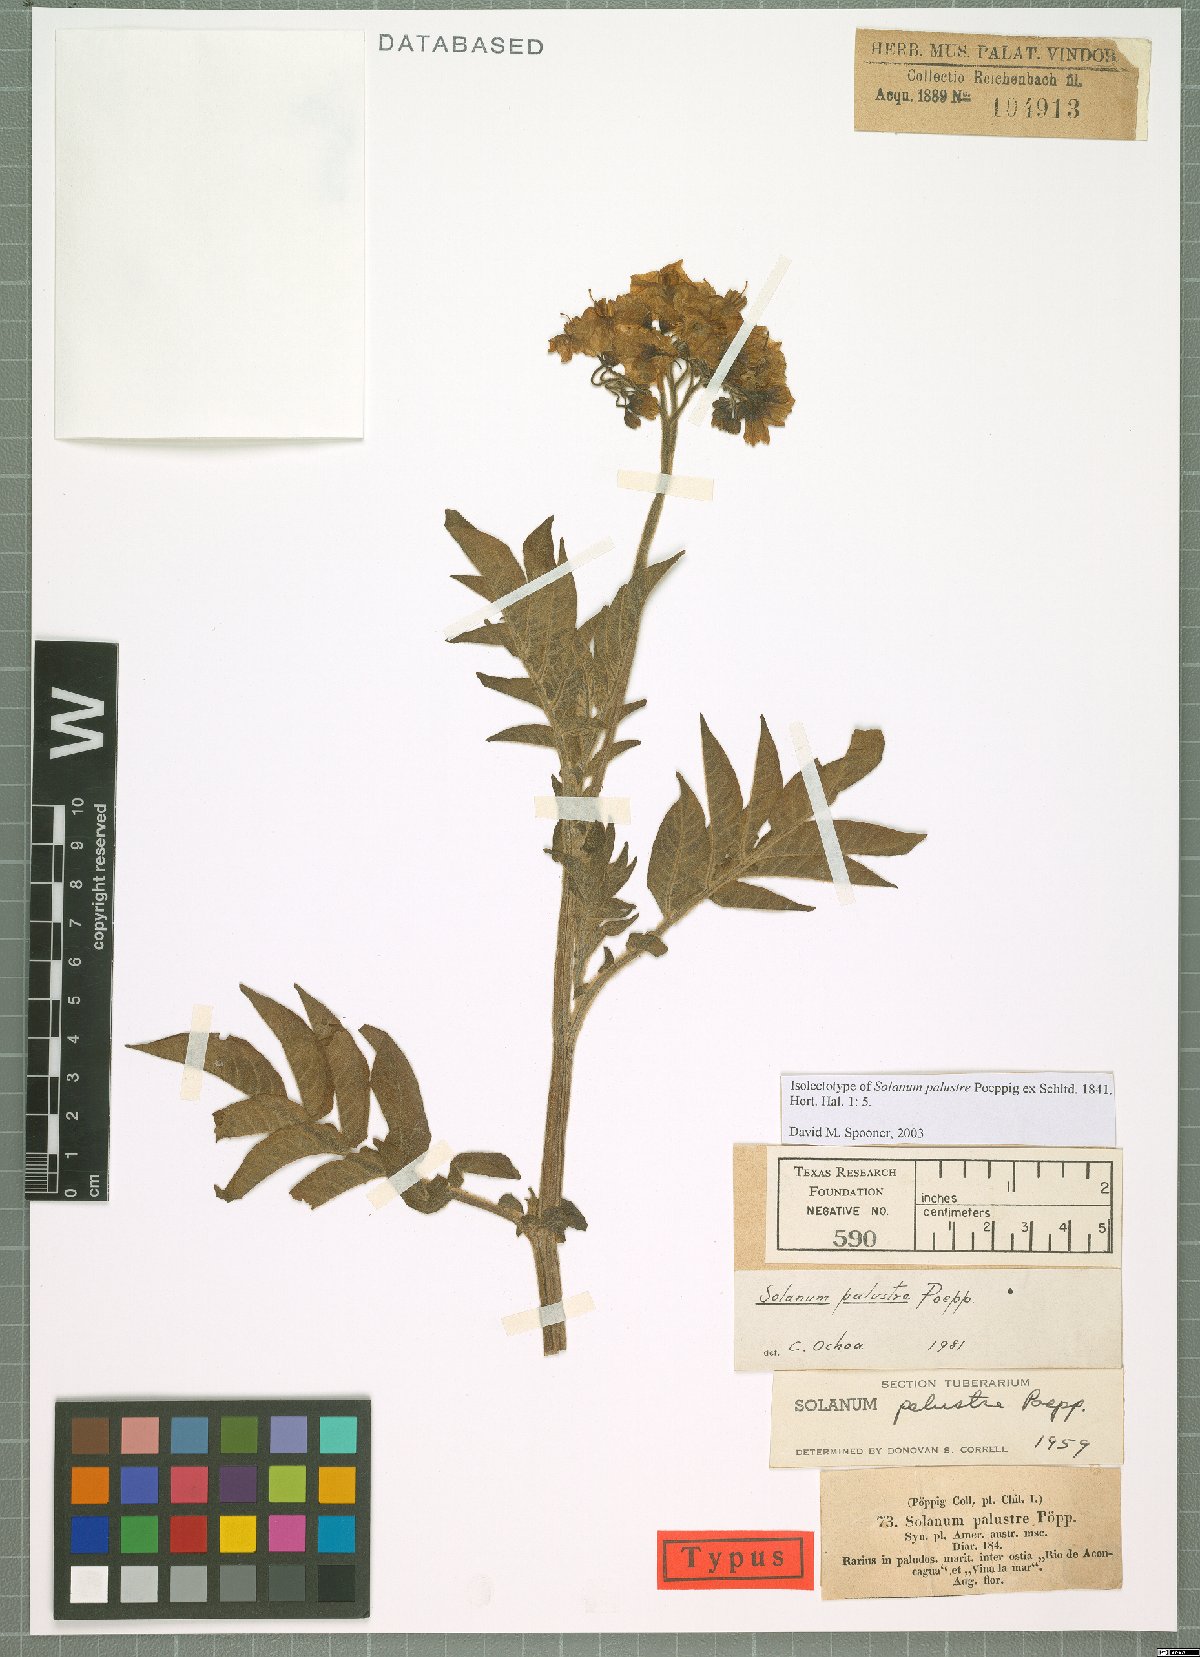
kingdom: Plantae
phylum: Tracheophyta
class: Magnoliopsida
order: Solanales
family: Solanaceae
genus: Solanum
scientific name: Solanum palustre
